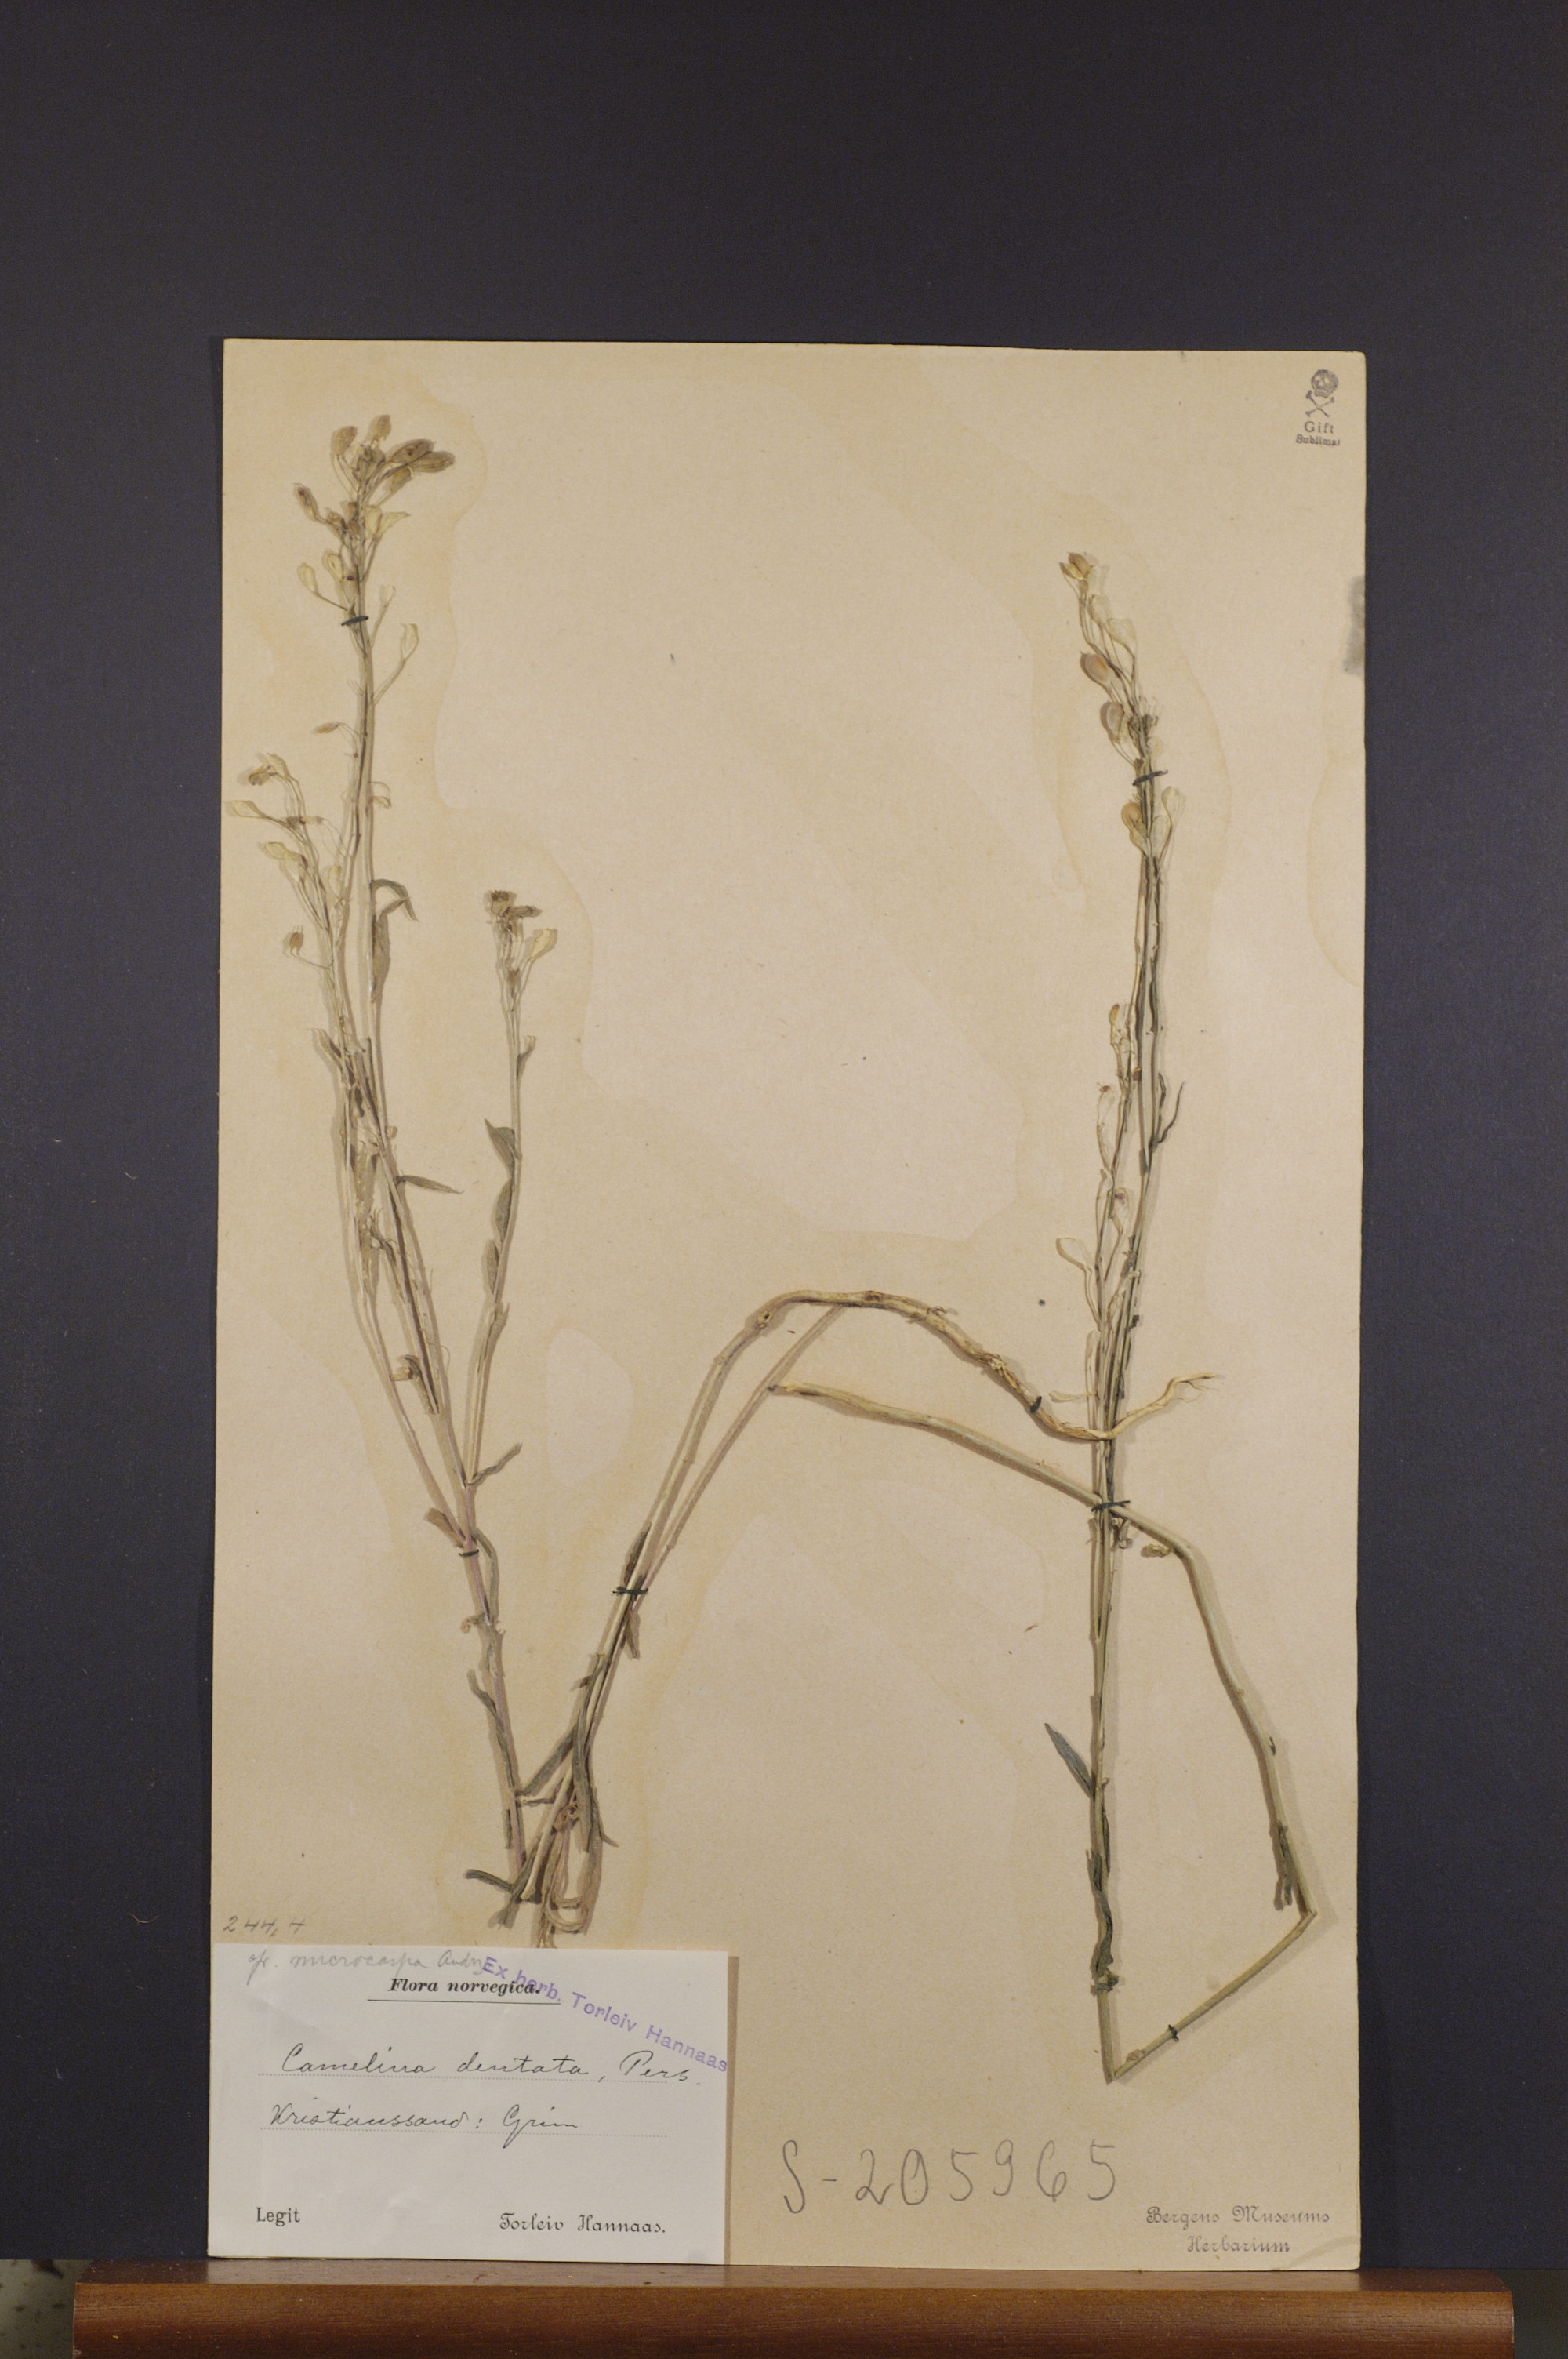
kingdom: Plantae
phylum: Tracheophyta
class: Magnoliopsida
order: Brassicales
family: Brassicaceae
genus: Camelina
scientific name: Camelina sativa
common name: Gold-of-pleasure
